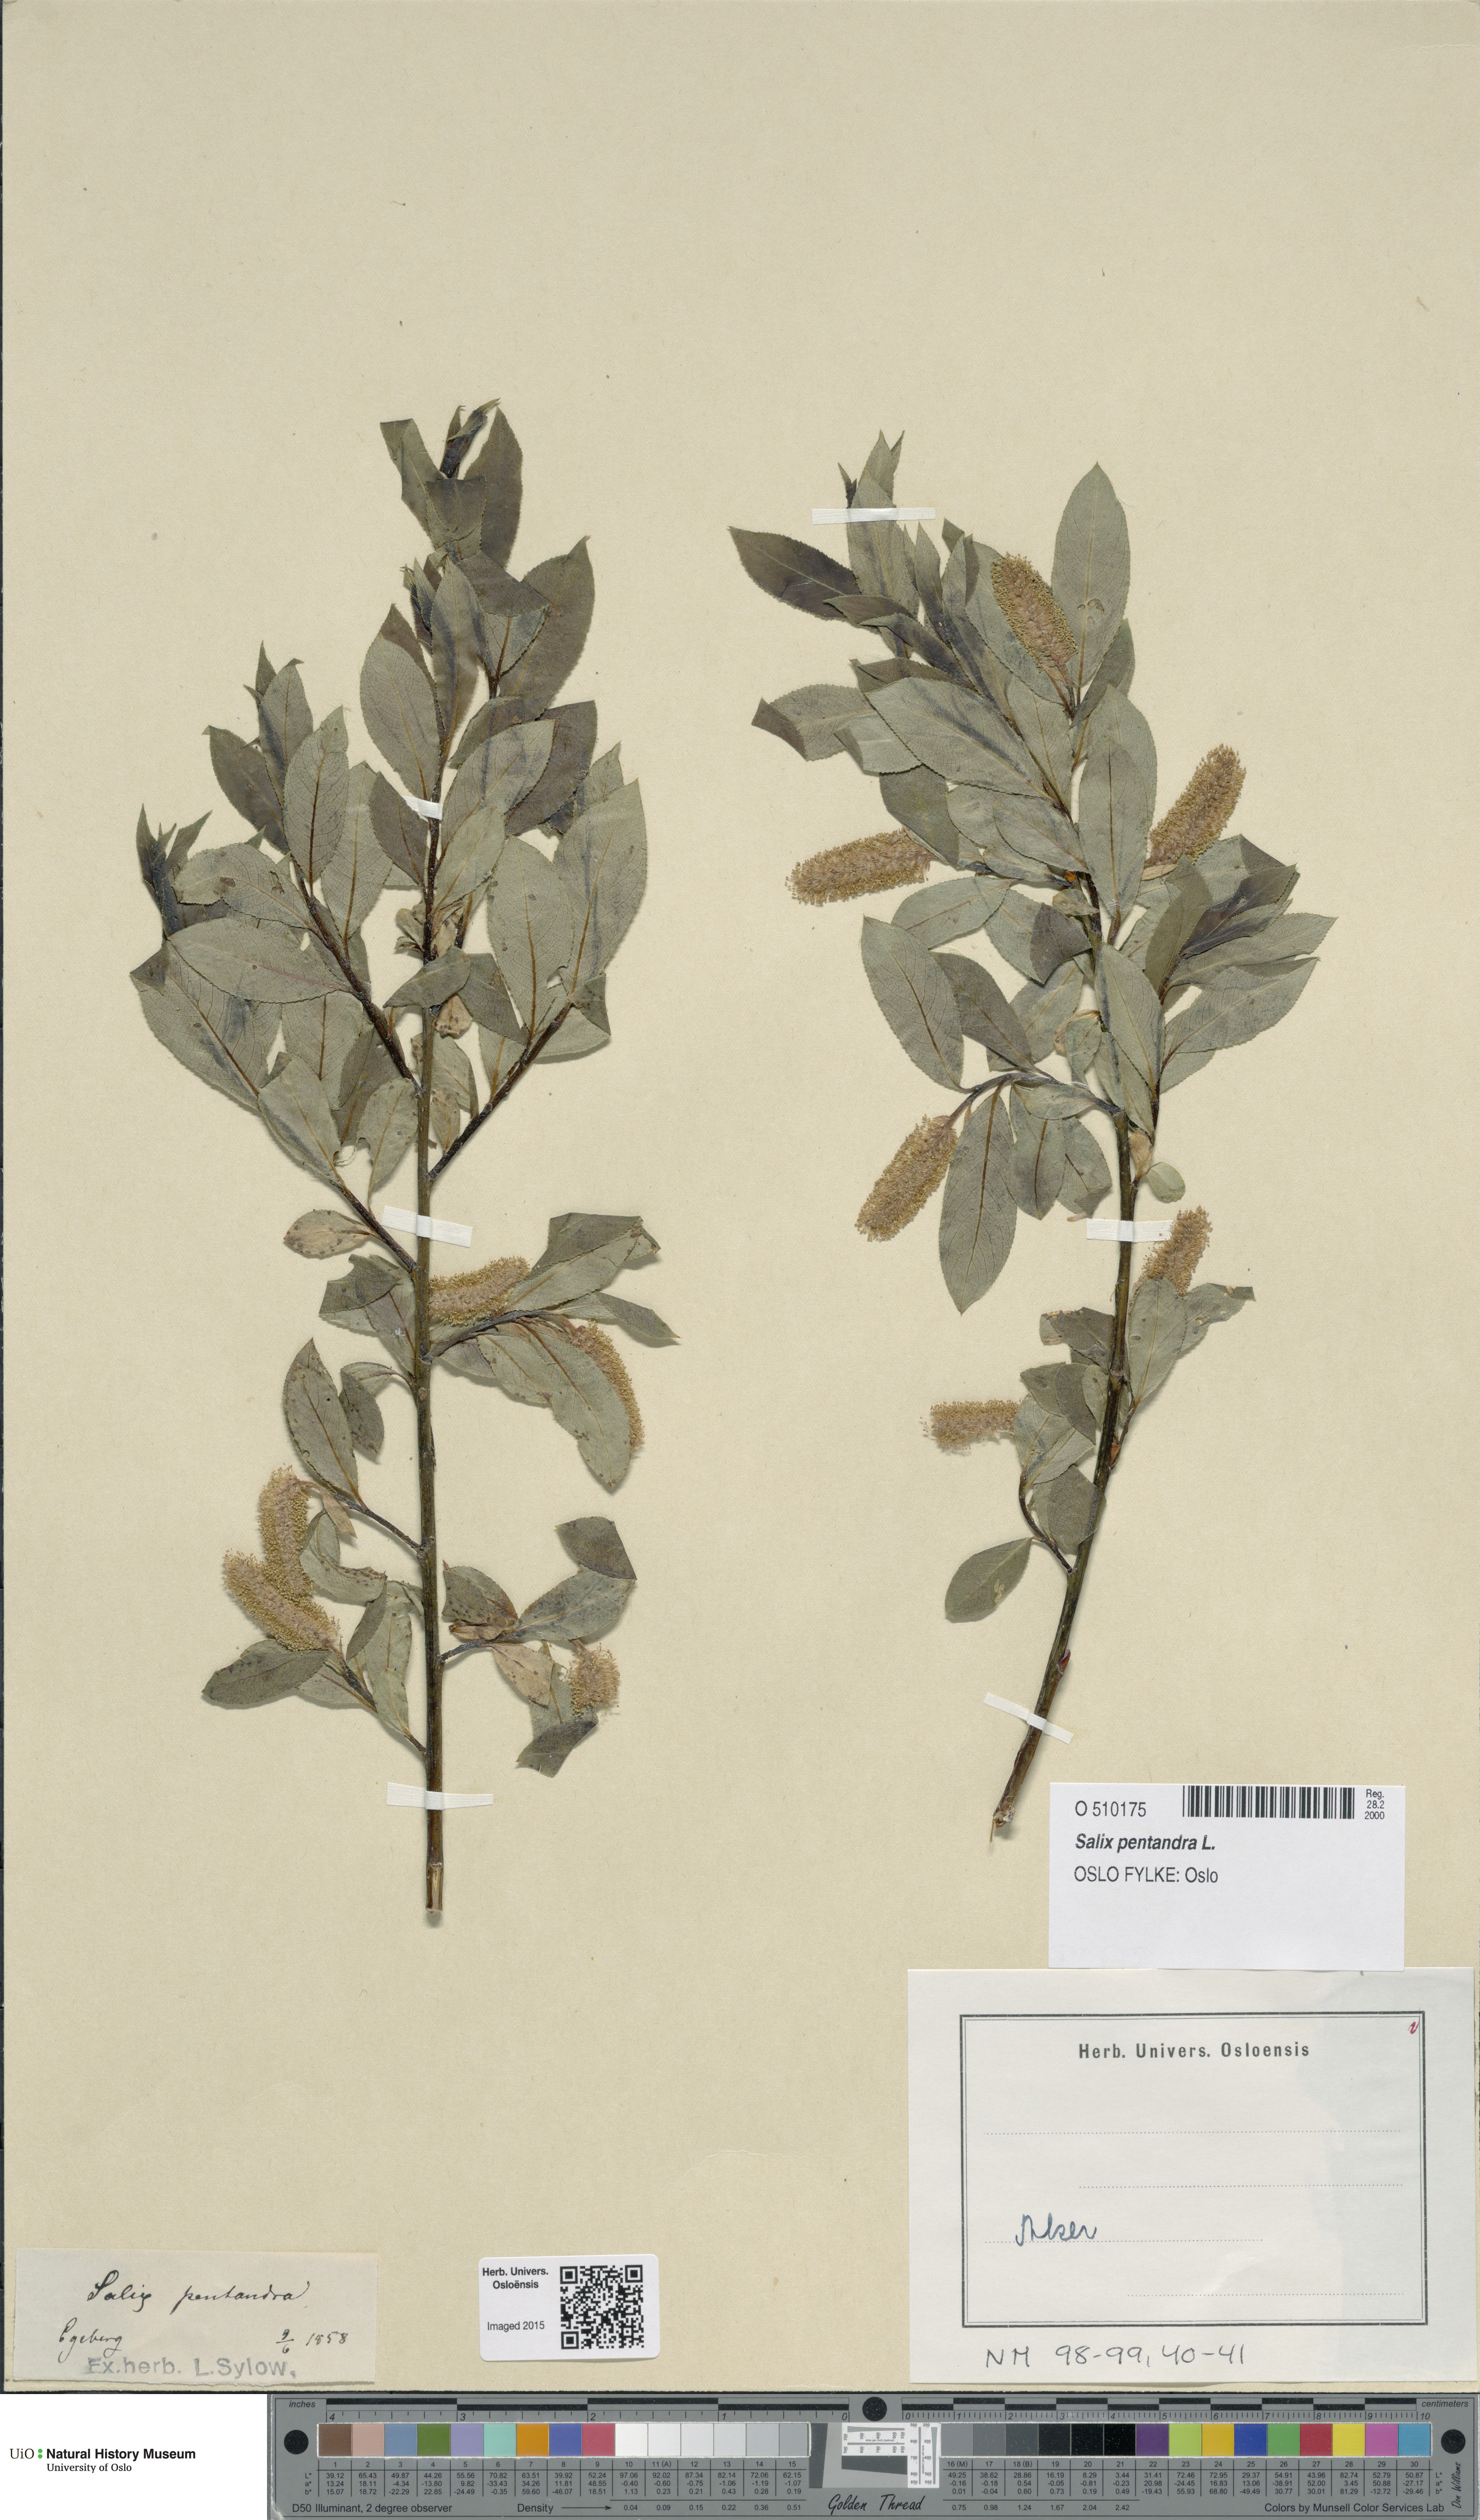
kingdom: Plantae
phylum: Tracheophyta
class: Magnoliopsida
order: Malpighiales
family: Salicaceae
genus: Salix
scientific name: Salix pentandra
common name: Bay willow
